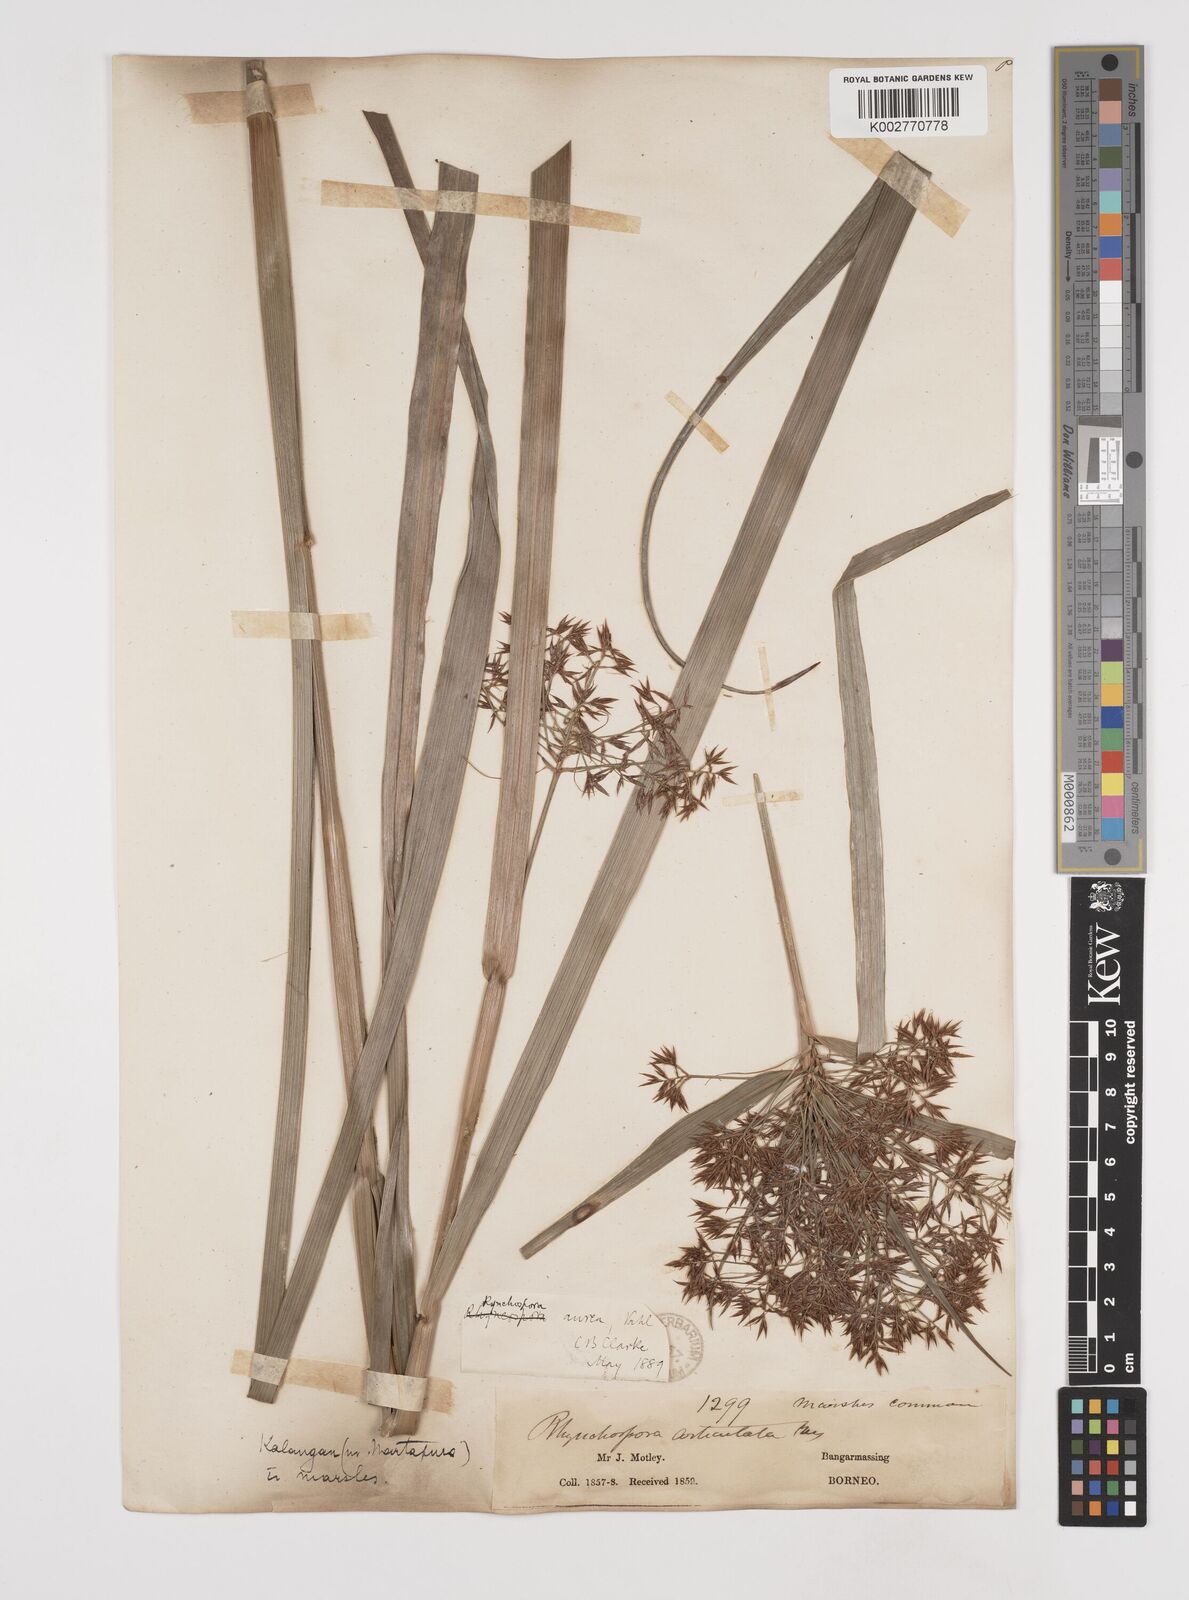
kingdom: Plantae
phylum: Tracheophyta
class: Liliopsida
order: Poales
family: Cyperaceae
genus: Rhynchospora
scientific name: Rhynchospora corymbosa
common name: Golden beak sedge
